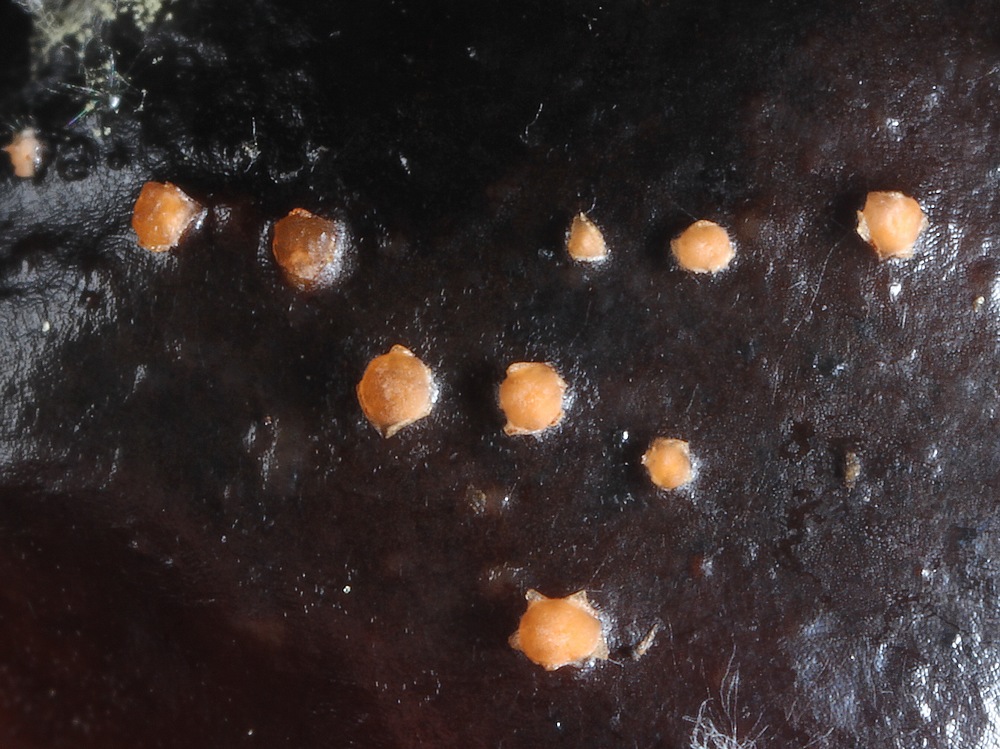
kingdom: Fungi
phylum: Ascomycota
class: Sordariomycetes
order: Hypocreales
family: Nectriaceae
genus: Fusarium
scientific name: Fusarium
